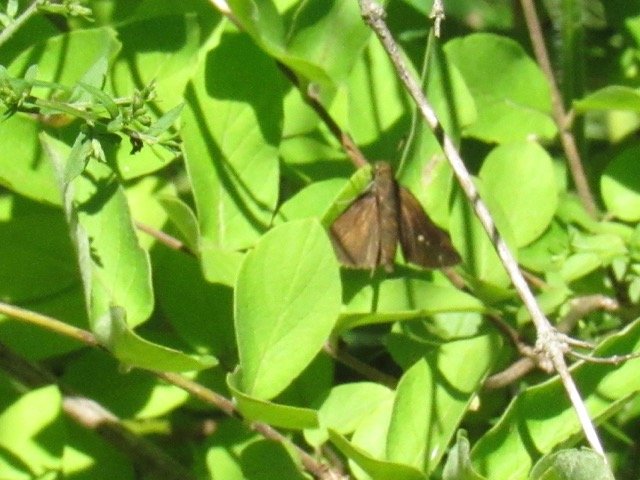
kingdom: Animalia
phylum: Arthropoda
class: Insecta
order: Lepidoptera
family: Hesperiidae
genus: Euphyes
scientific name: Euphyes vestris
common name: Dun Skipper
